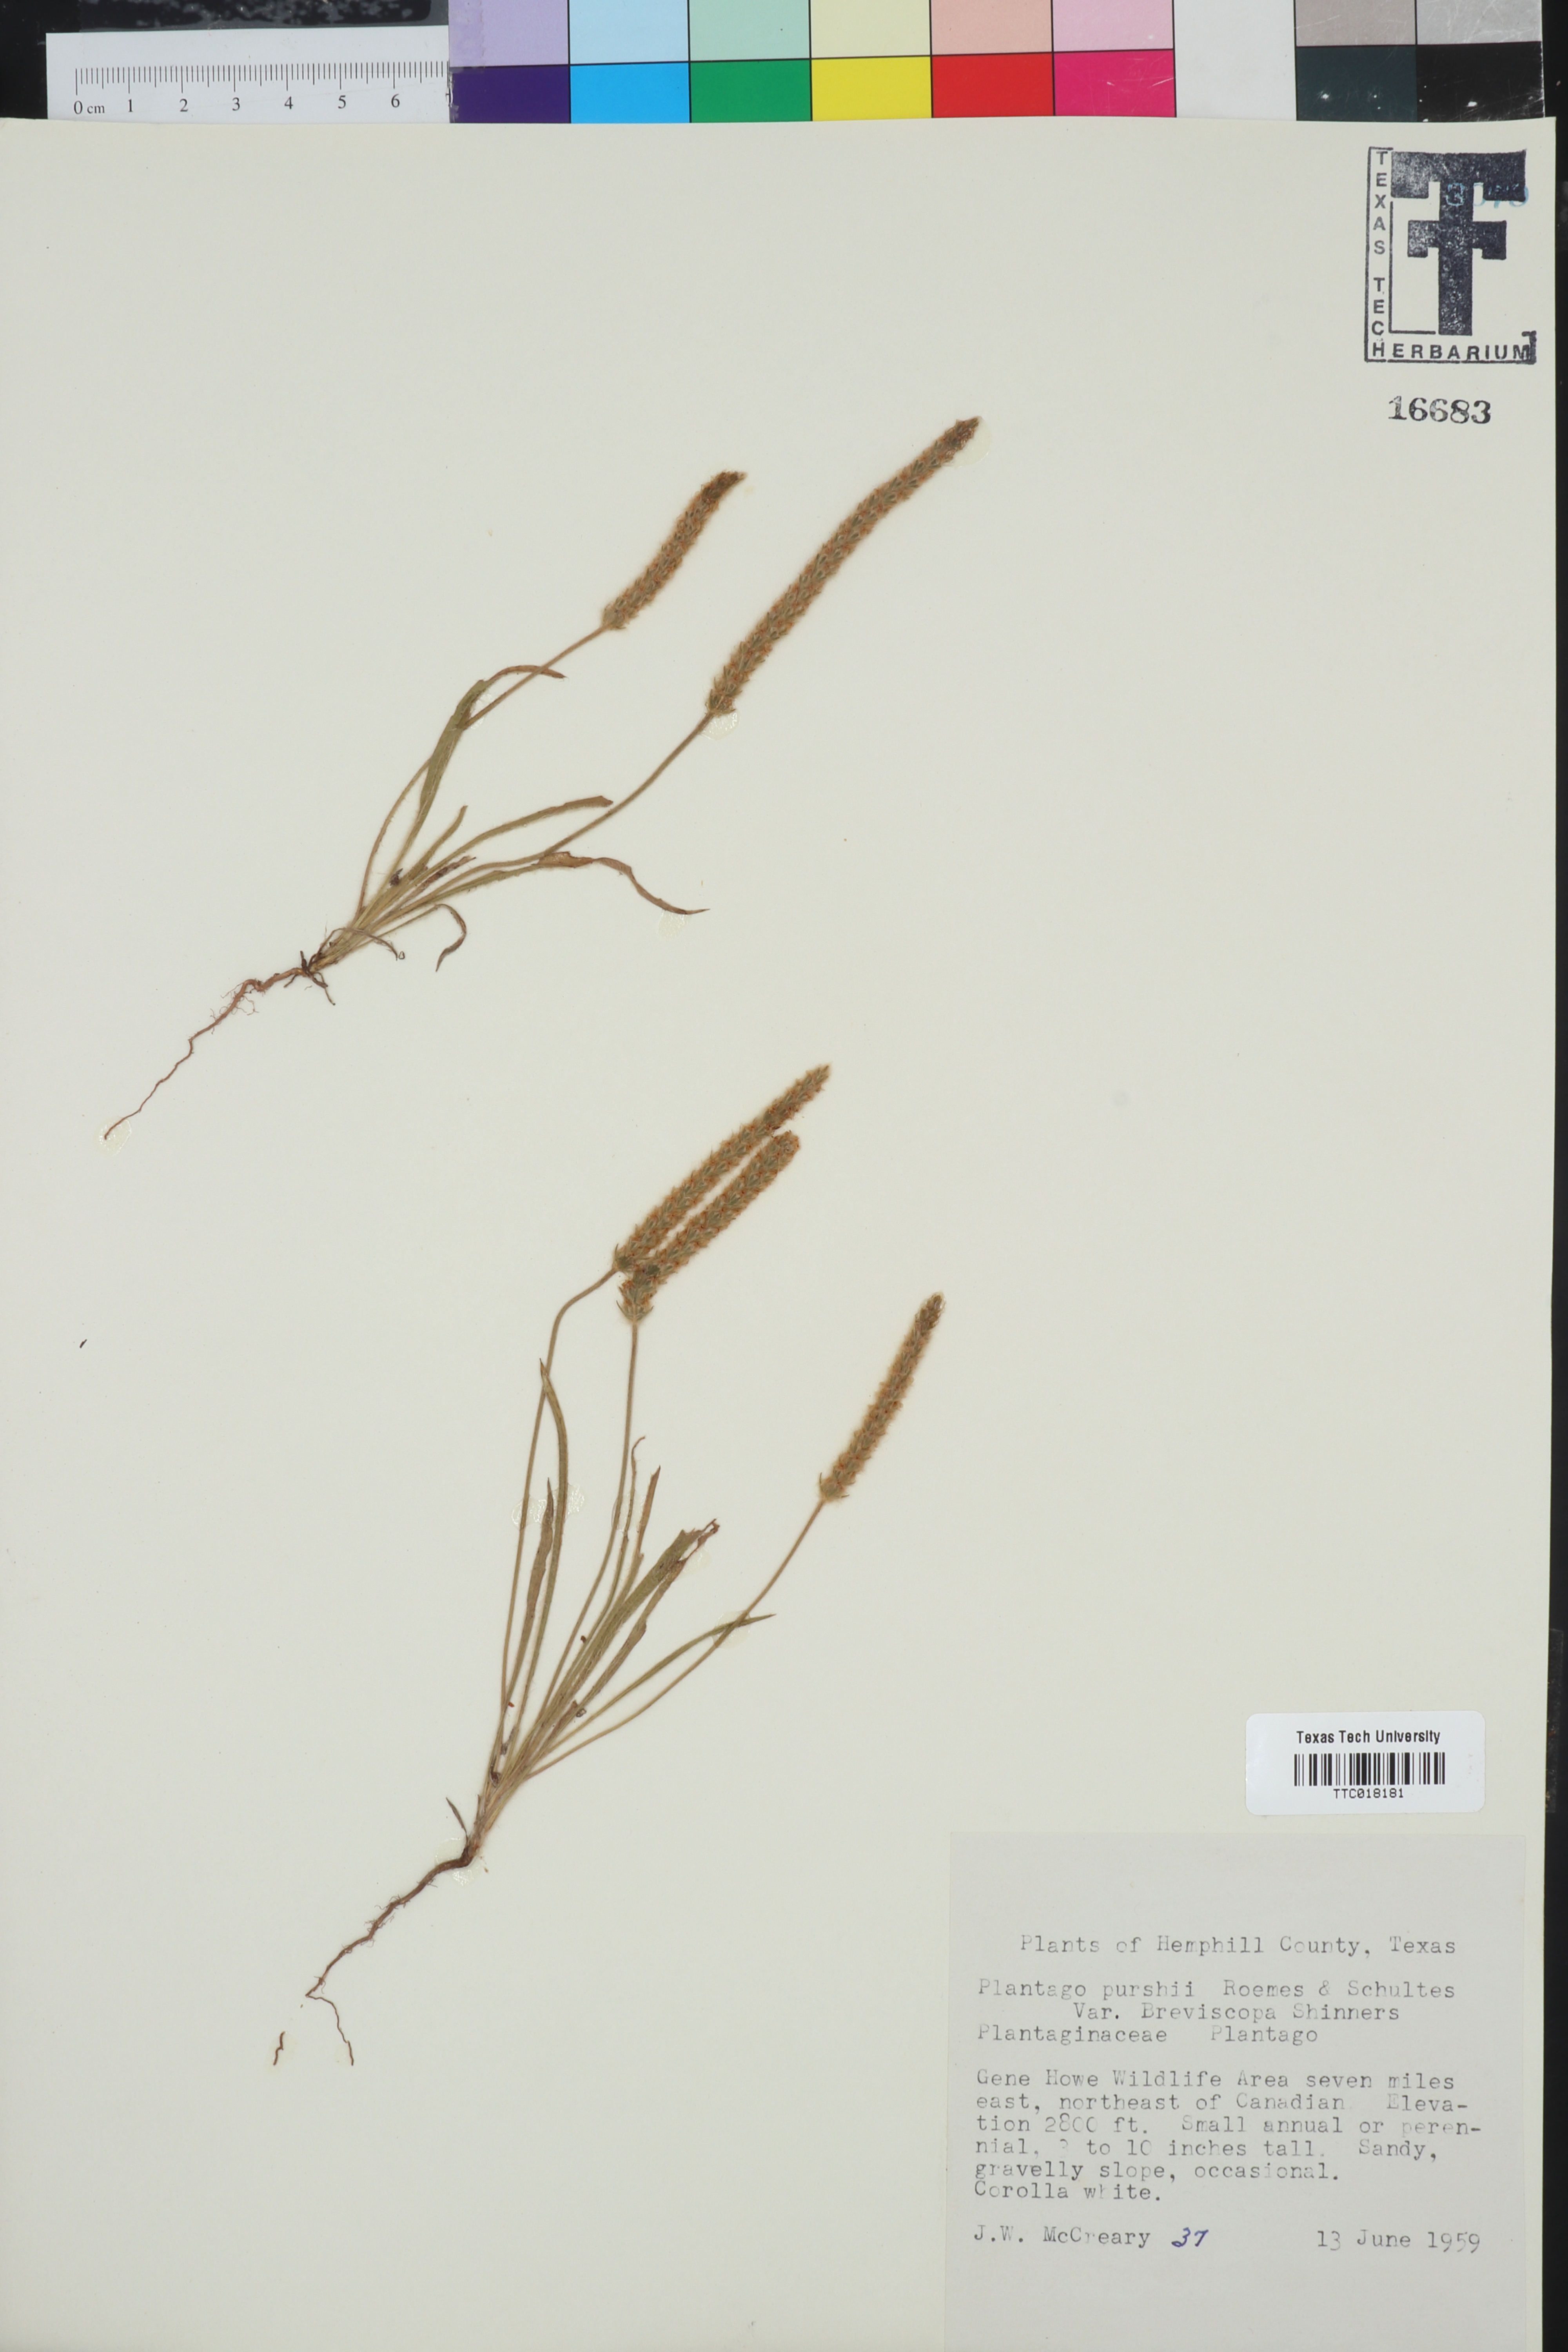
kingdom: Plantae
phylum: Tracheophyta
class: Magnoliopsida
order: Lamiales
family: Plantaginaceae
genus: Plantago
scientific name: Plantago patagonica
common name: Patagonia indian-wheat
